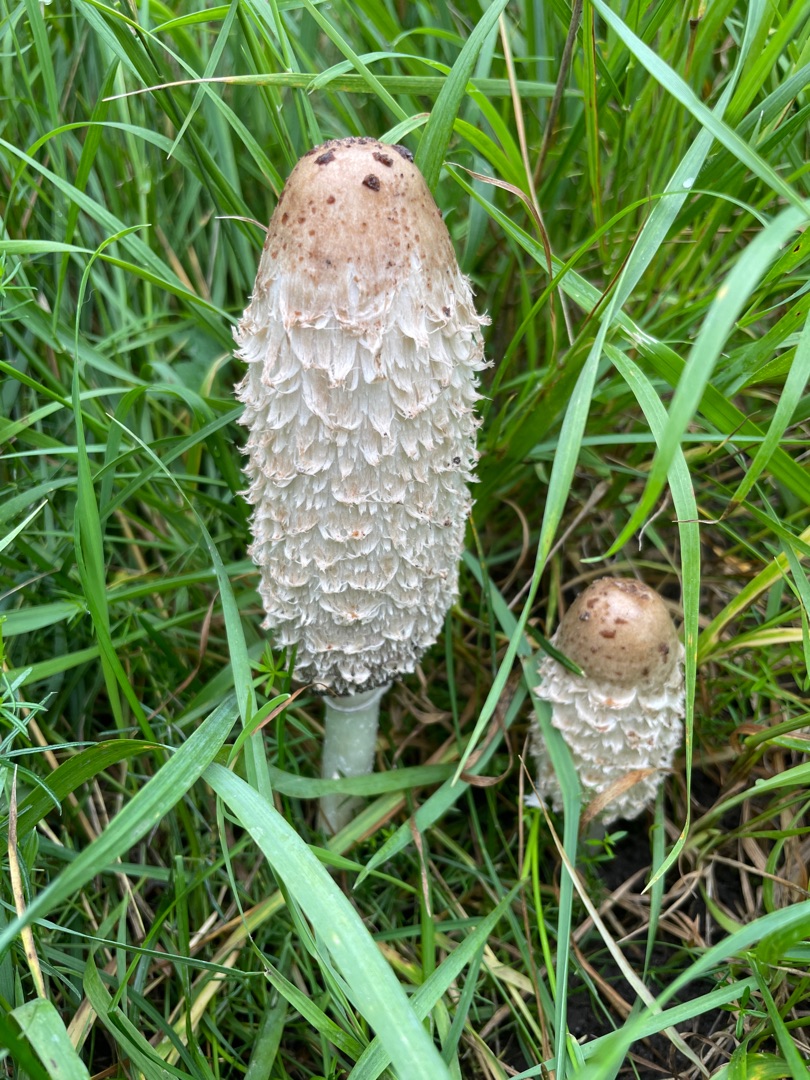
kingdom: Fungi
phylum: Basidiomycota
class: Agaricomycetes
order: Agaricales
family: Agaricaceae
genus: Coprinus
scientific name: Coprinus comatus
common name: Stor parykhat
